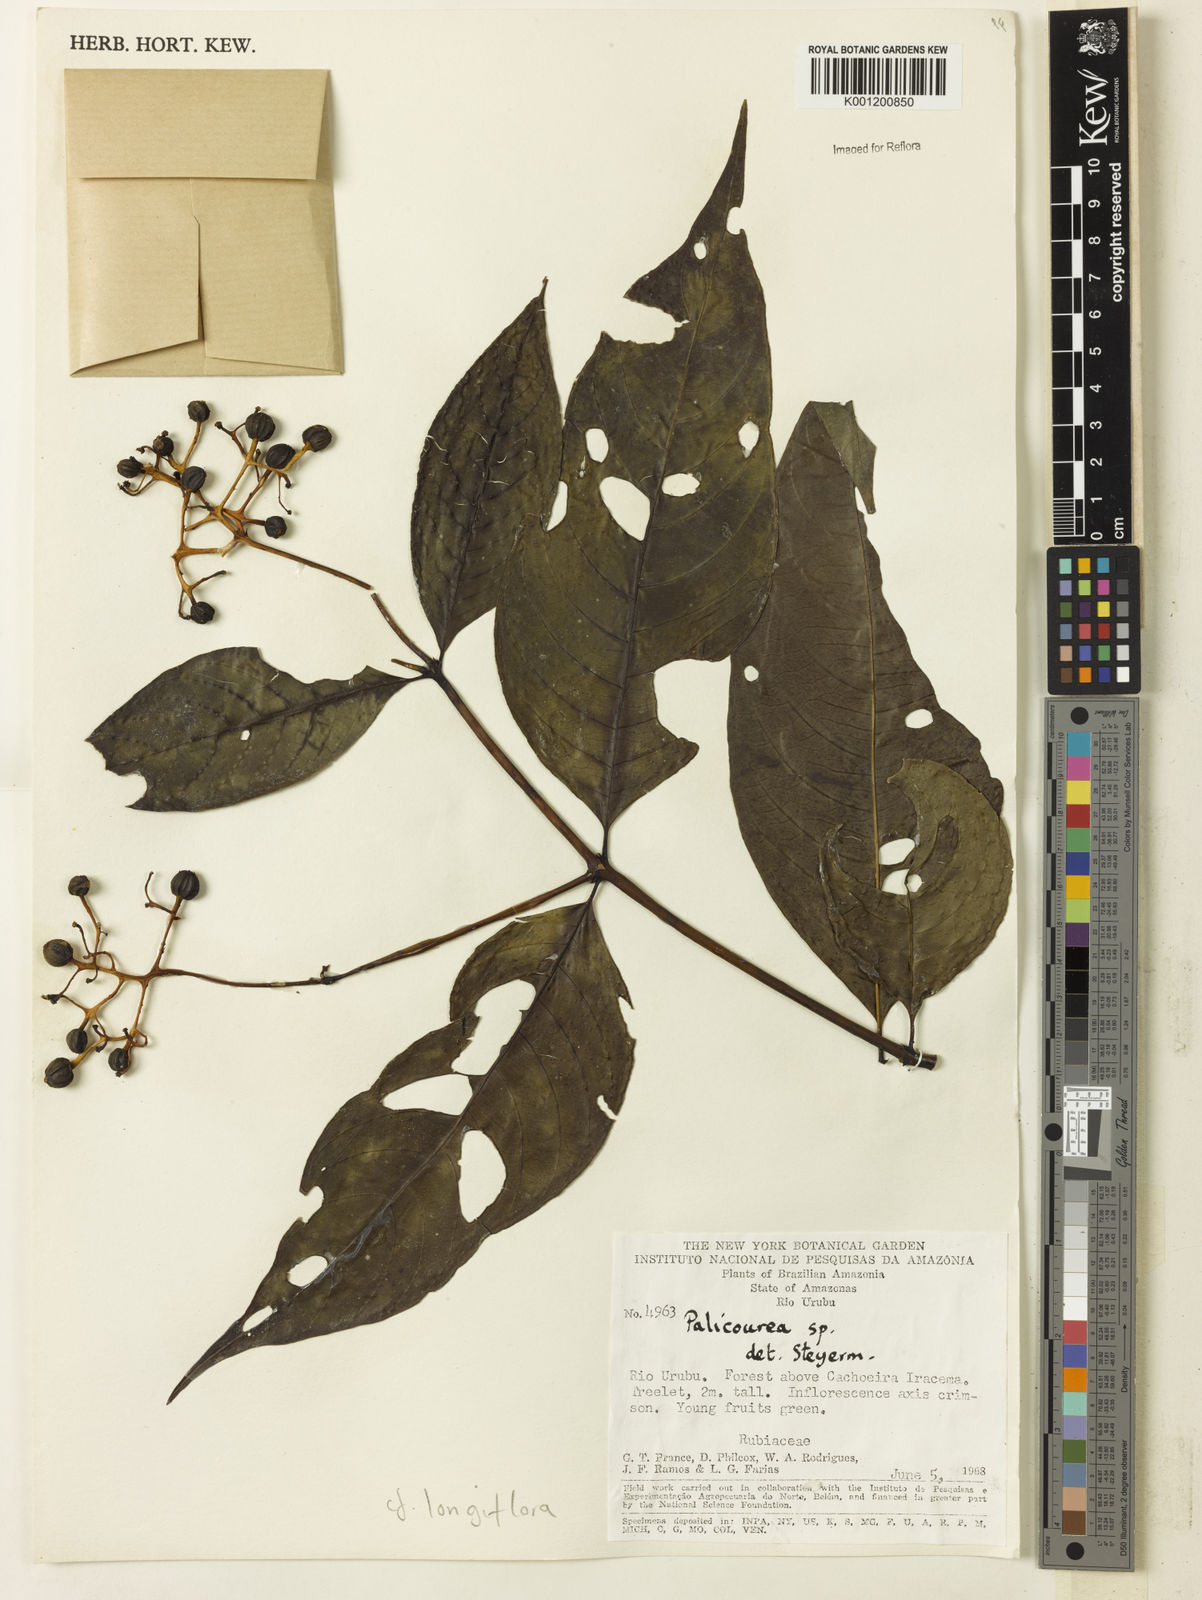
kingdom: Plantae
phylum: Tracheophyta
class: Magnoliopsida
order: Gentianales
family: Rubiaceae
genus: Palicourea
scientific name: Palicourea longiflora
